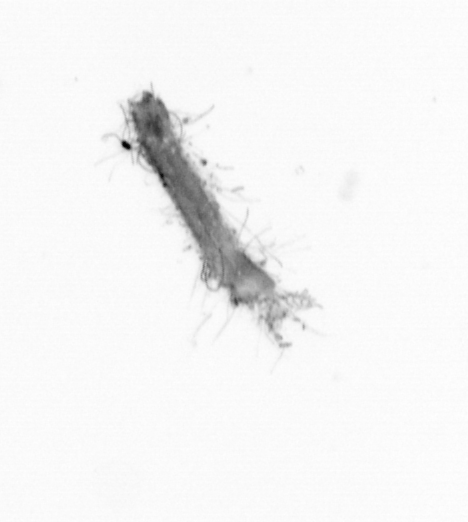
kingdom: Animalia
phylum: Annelida
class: Polychaeta
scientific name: Polychaeta
